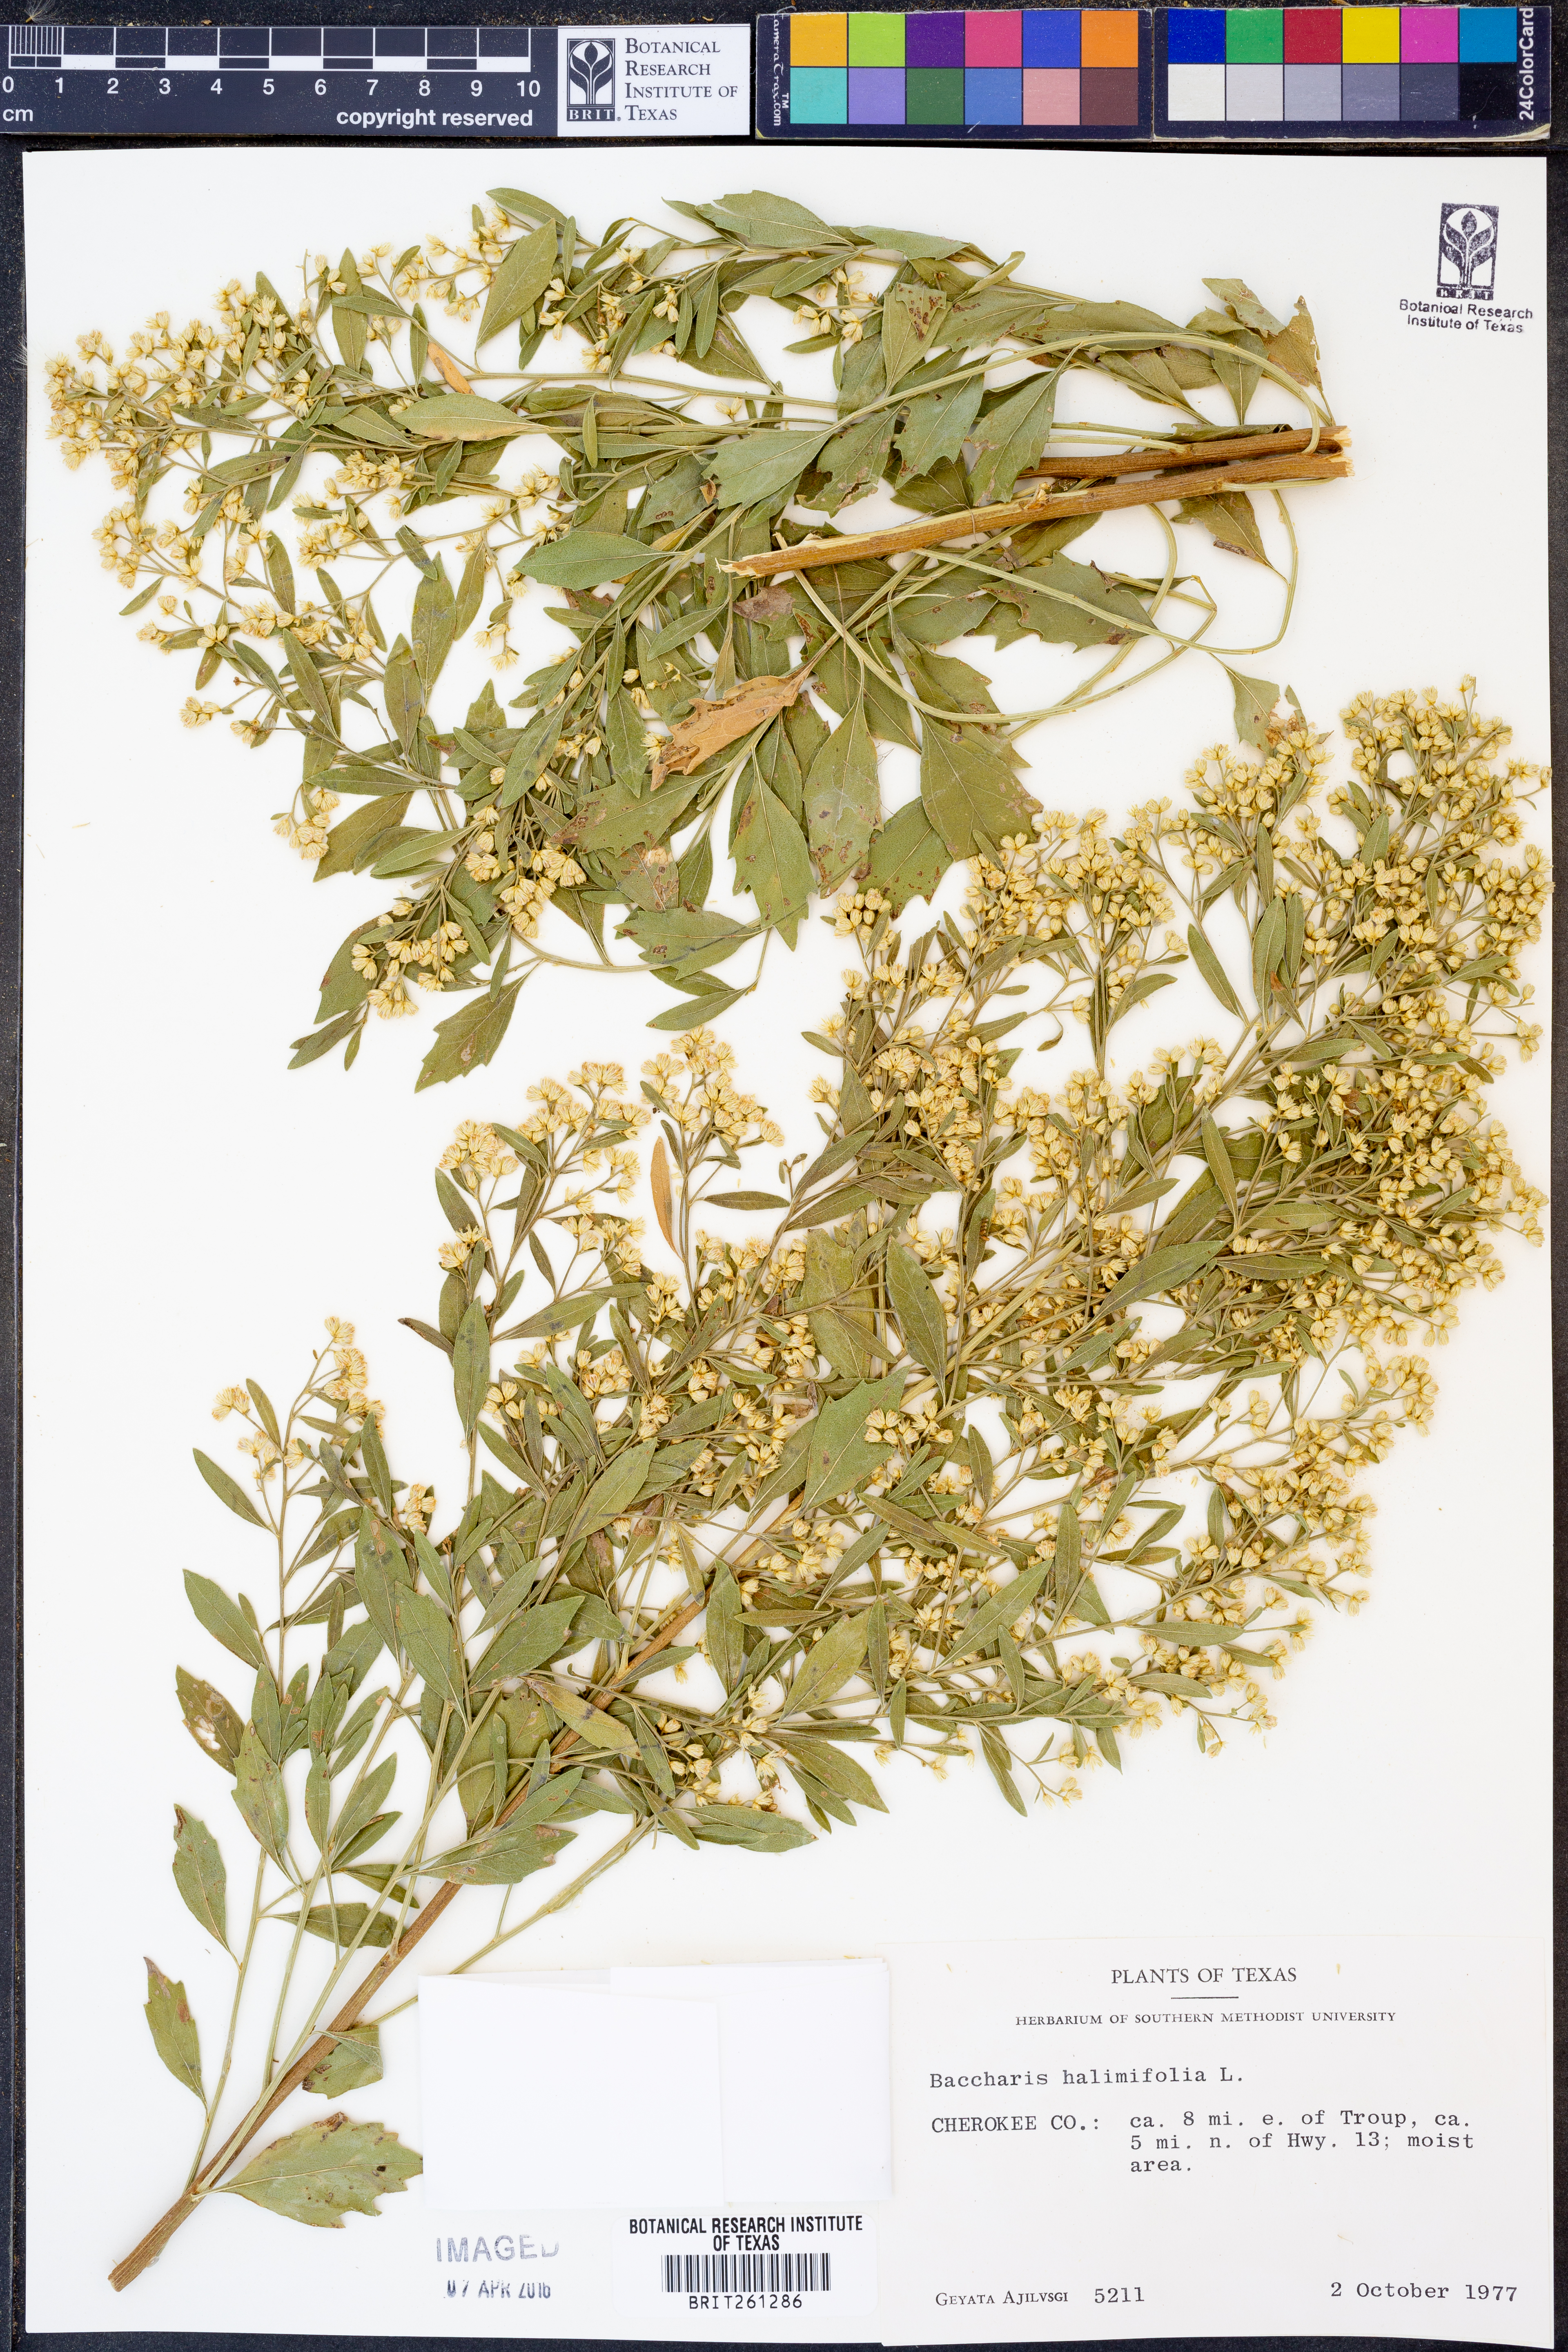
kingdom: Plantae
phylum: Tracheophyta
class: Magnoliopsida
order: Asterales
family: Asteraceae
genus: Nidorella
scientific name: Nidorella ivifolia
